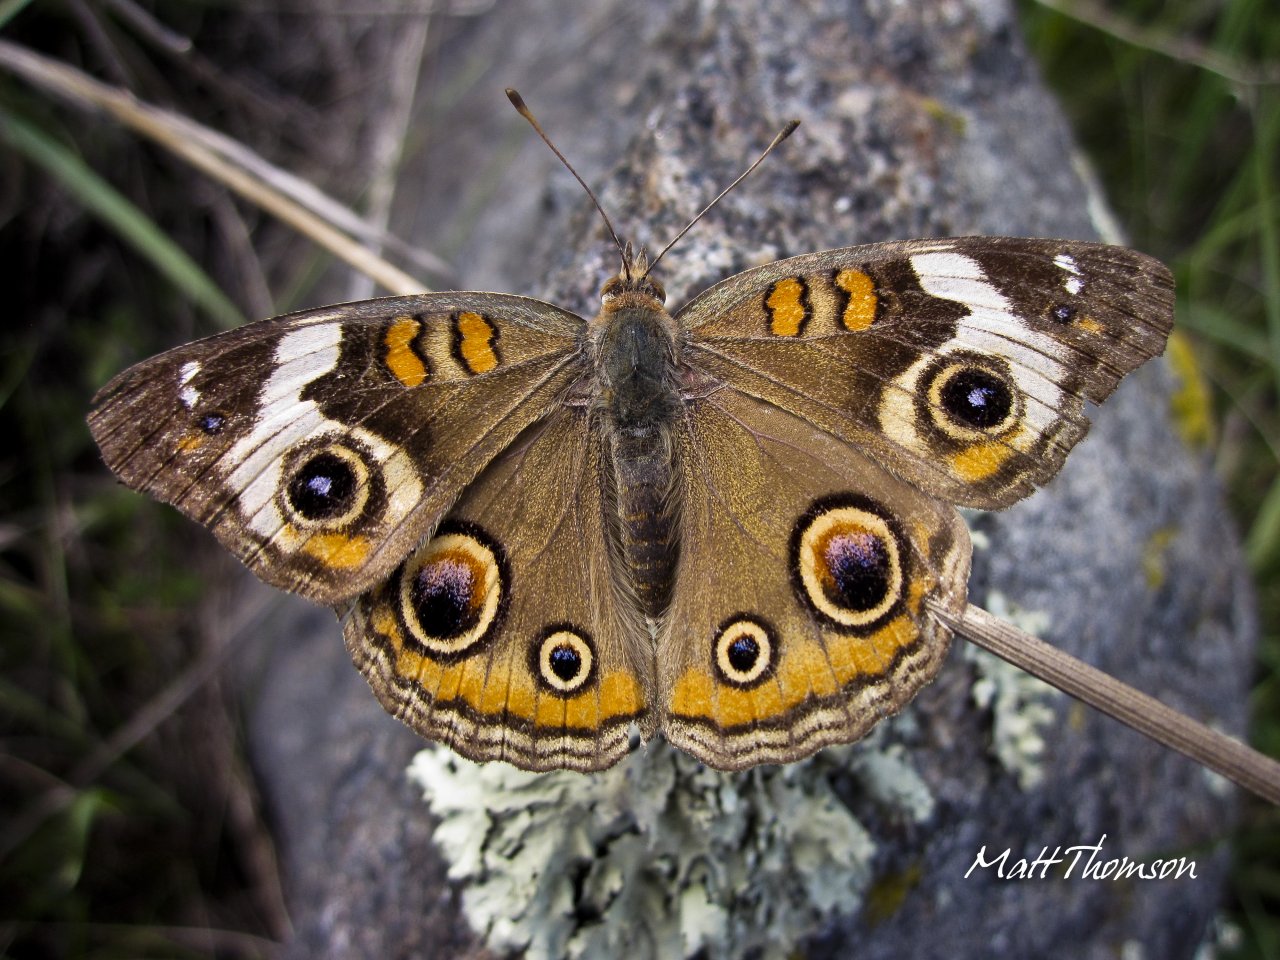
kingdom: Animalia
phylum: Arthropoda
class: Insecta
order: Lepidoptera
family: Nymphalidae
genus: Junonia
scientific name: Junonia coenia
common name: Common Buckeye
